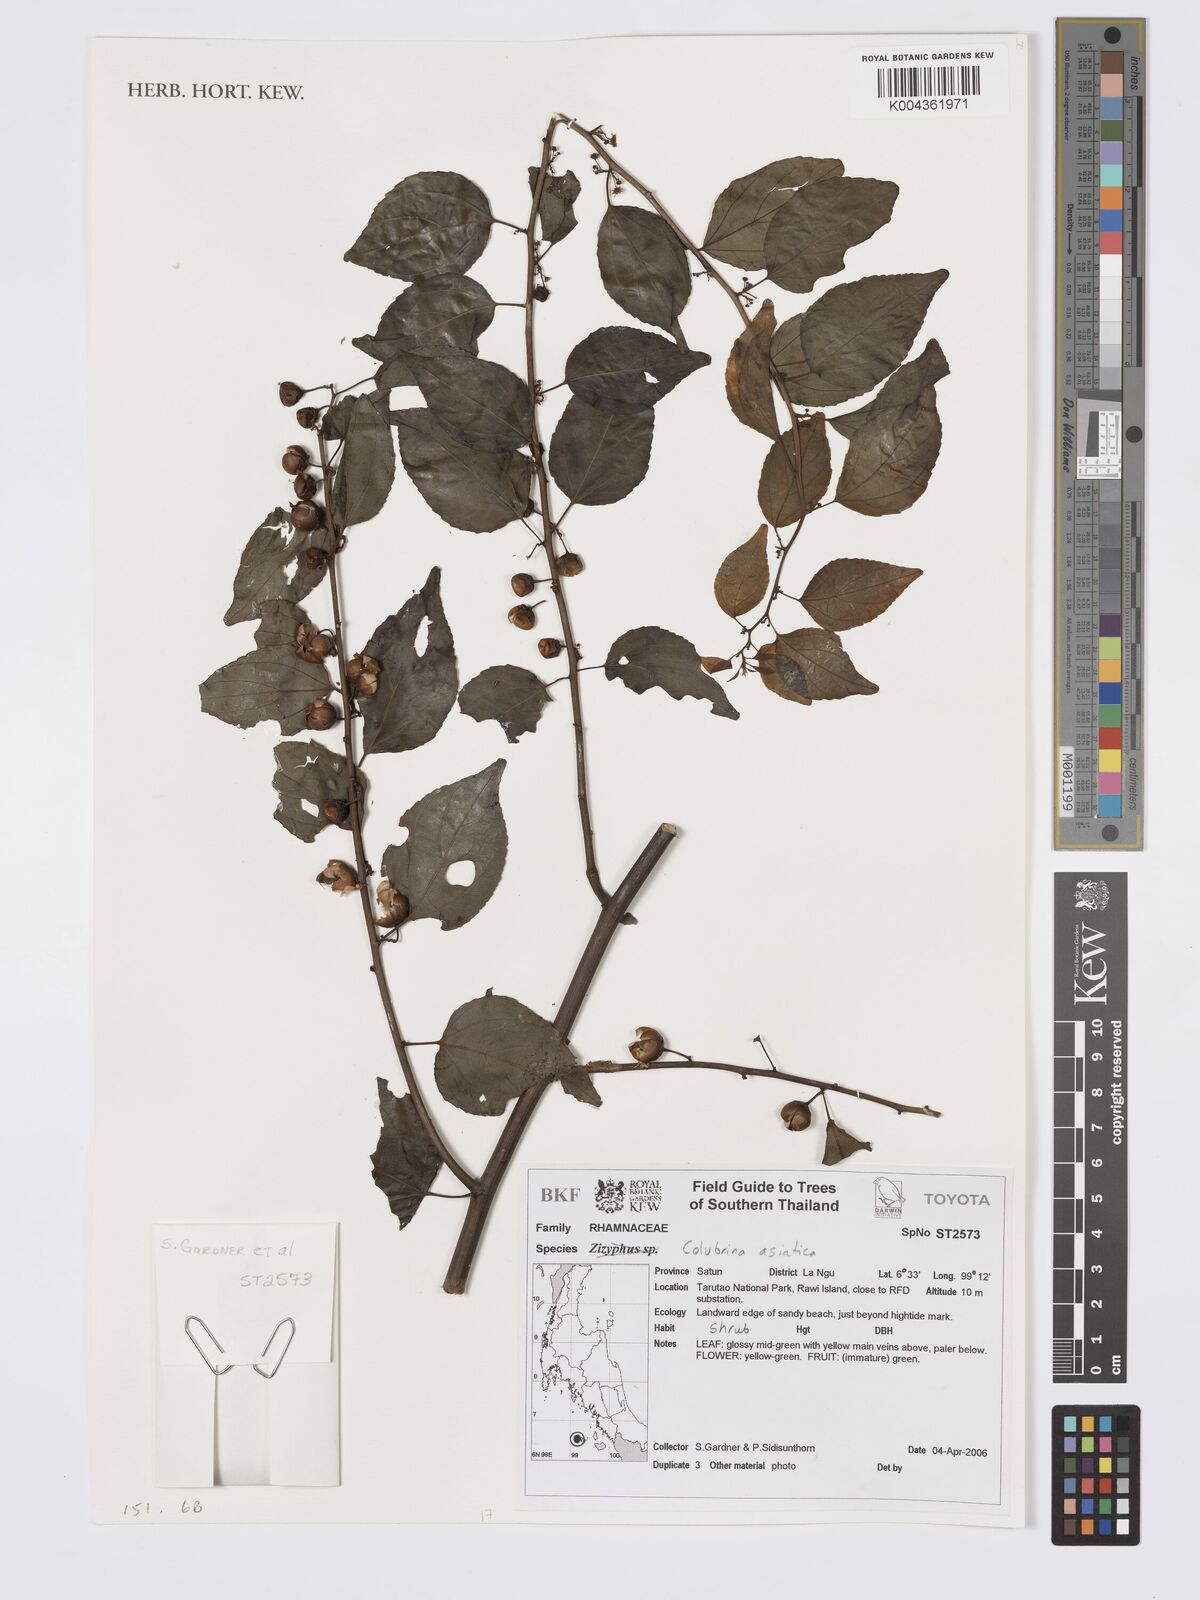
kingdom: Plantae
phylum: Tracheophyta
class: Magnoliopsida
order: Rosales
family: Rhamnaceae
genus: Colubrina
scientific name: Colubrina asiatica
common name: Asian nakedwood
